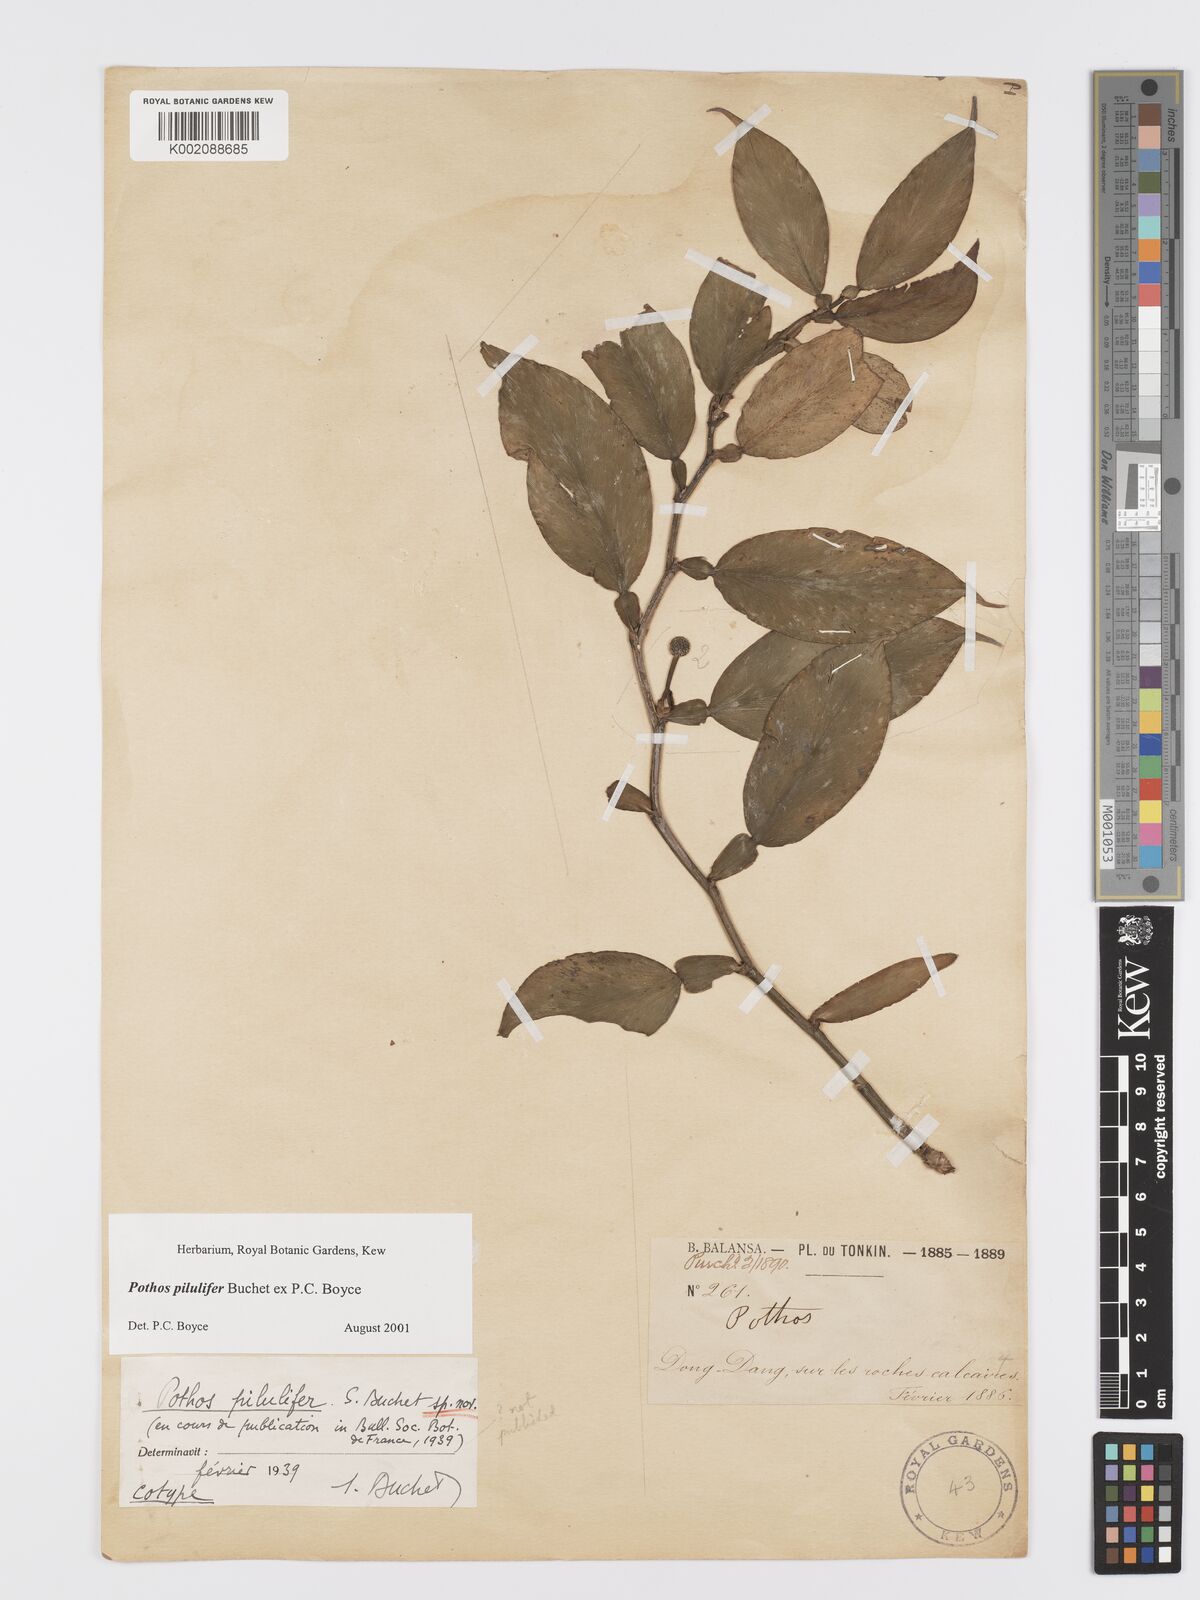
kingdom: Plantae
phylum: Tracheophyta
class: Liliopsida
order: Alismatales
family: Araceae
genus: Pothos
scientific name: Pothos pilulifer
